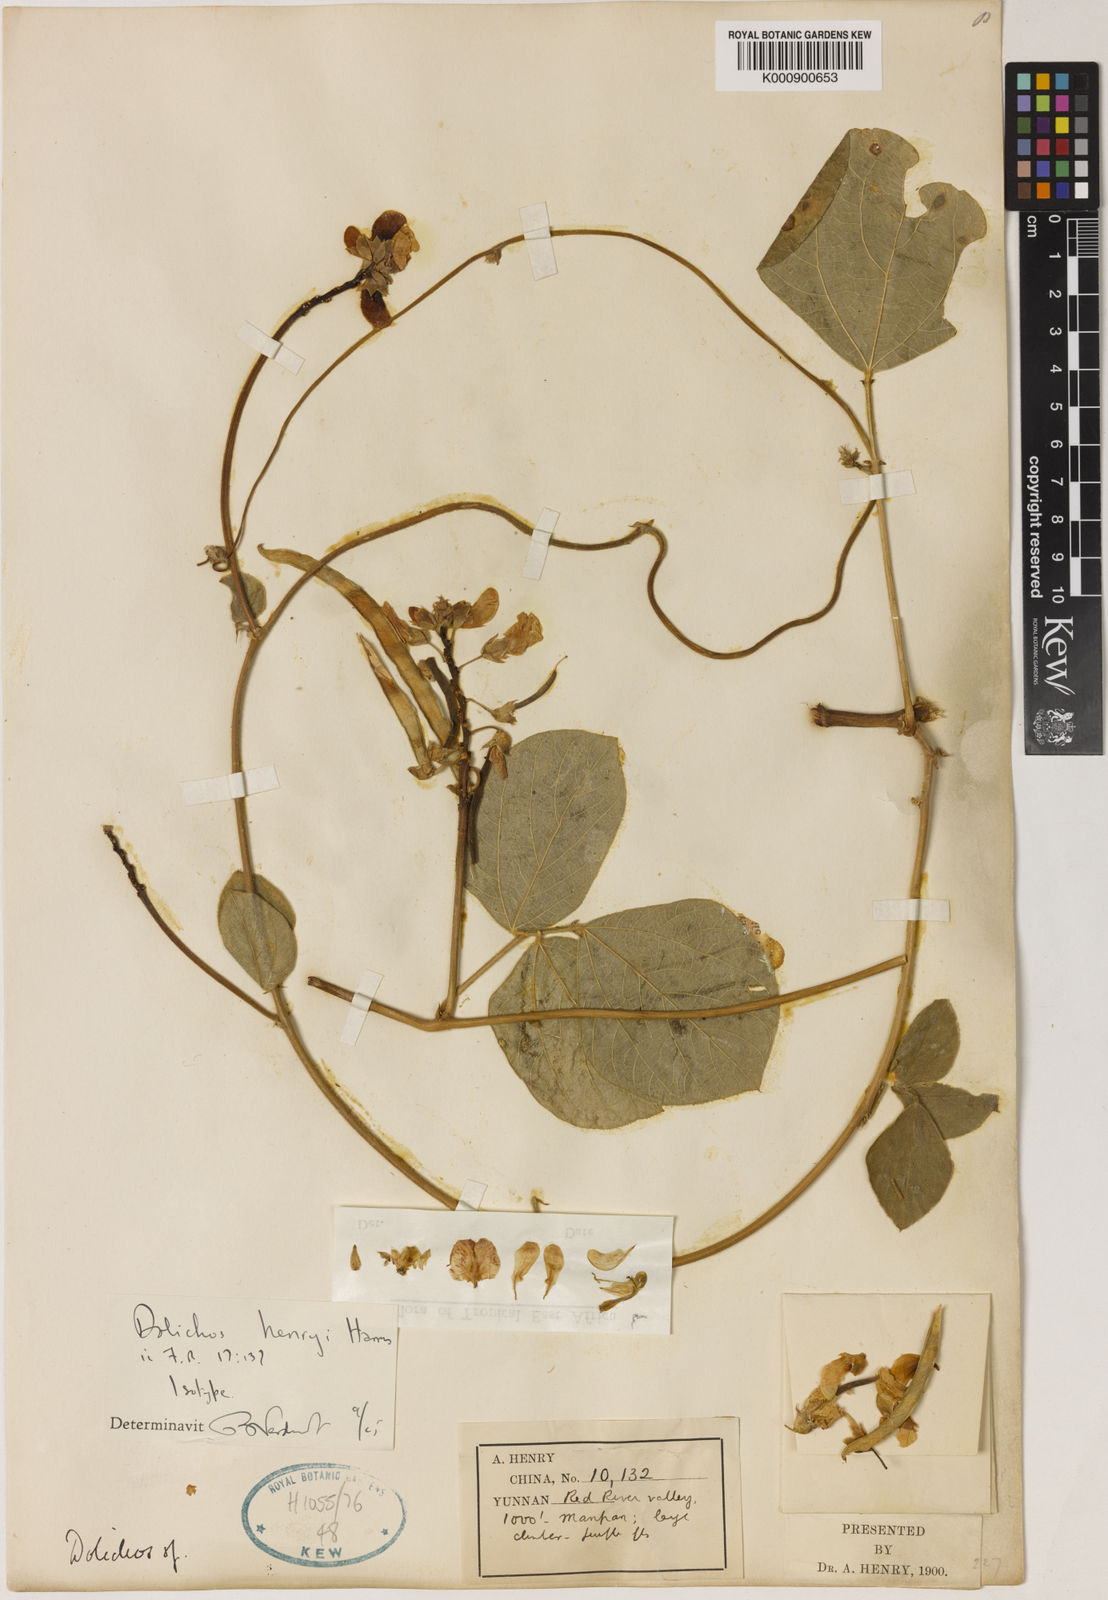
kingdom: Plantae
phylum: Tracheophyta
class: Magnoliopsida
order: Fabales
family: Fabaceae
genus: Dolichos
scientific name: Dolichos junghuhnianus
